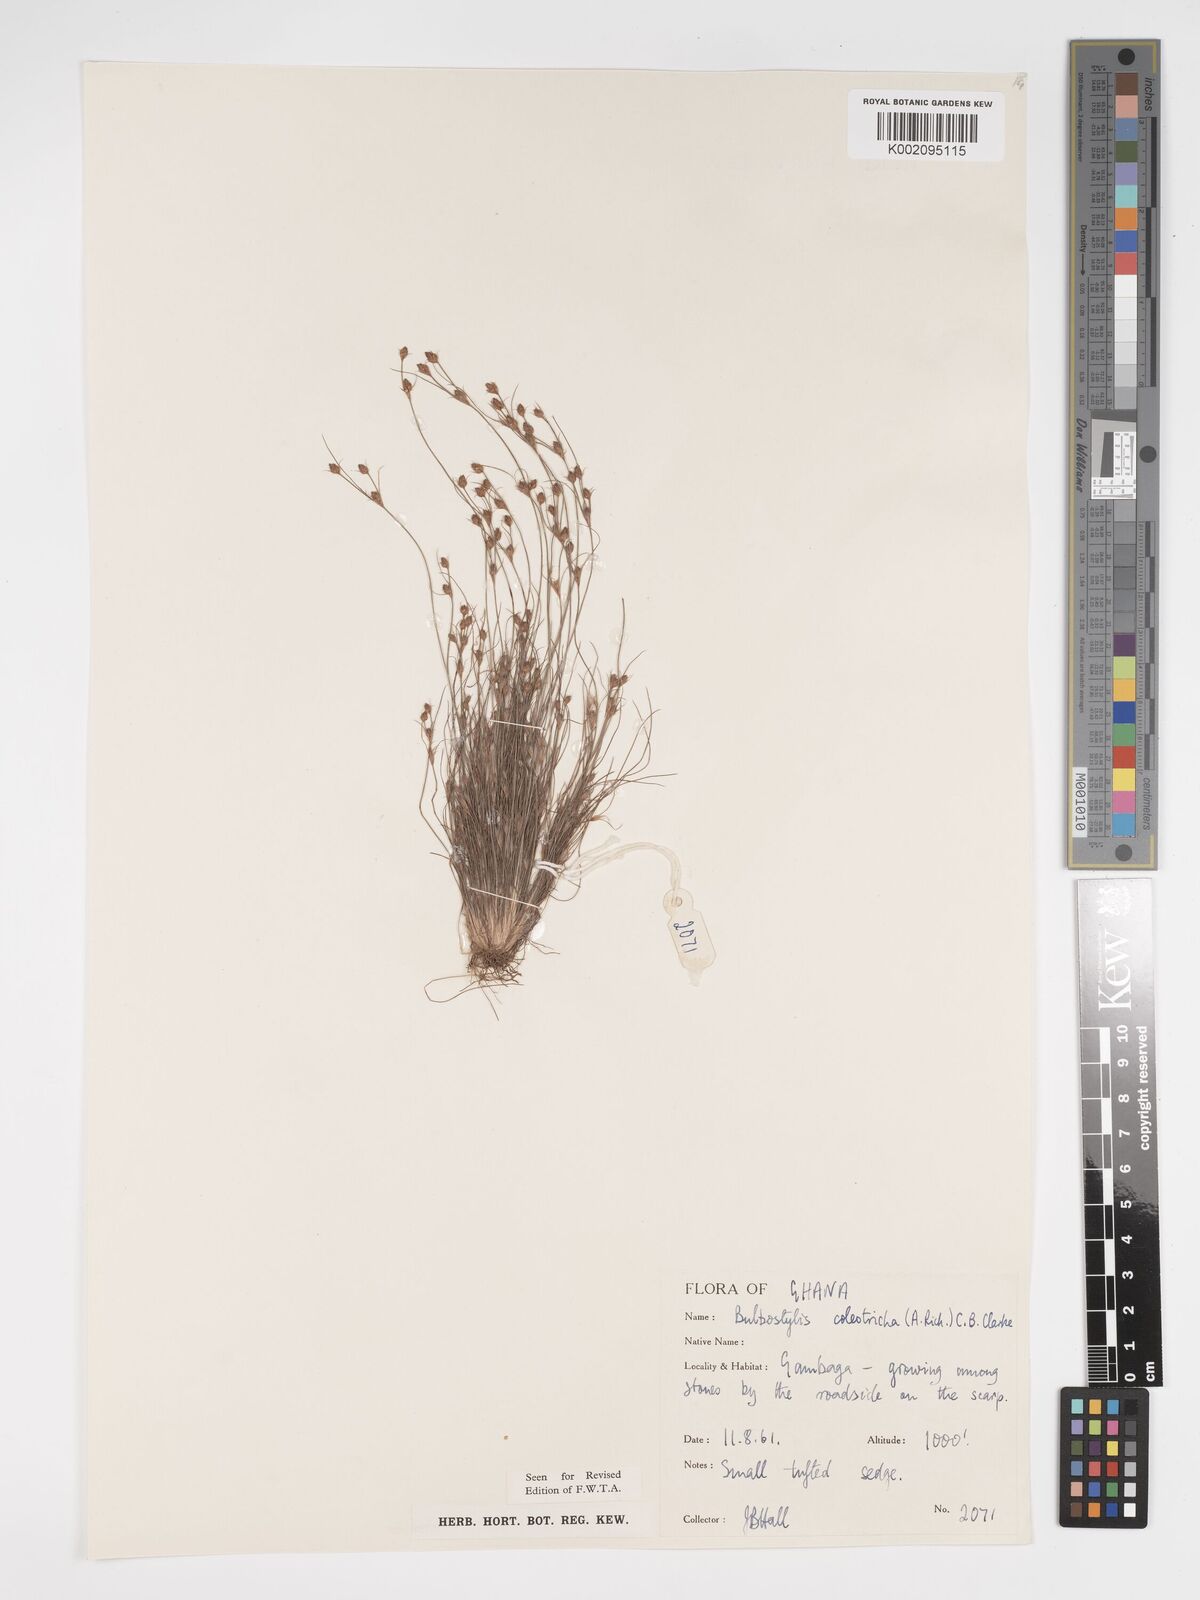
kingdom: Plantae
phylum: Tracheophyta
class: Liliopsida
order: Poales
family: Cyperaceae
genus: Bulbostylis
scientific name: Bulbostylis coleotricha
